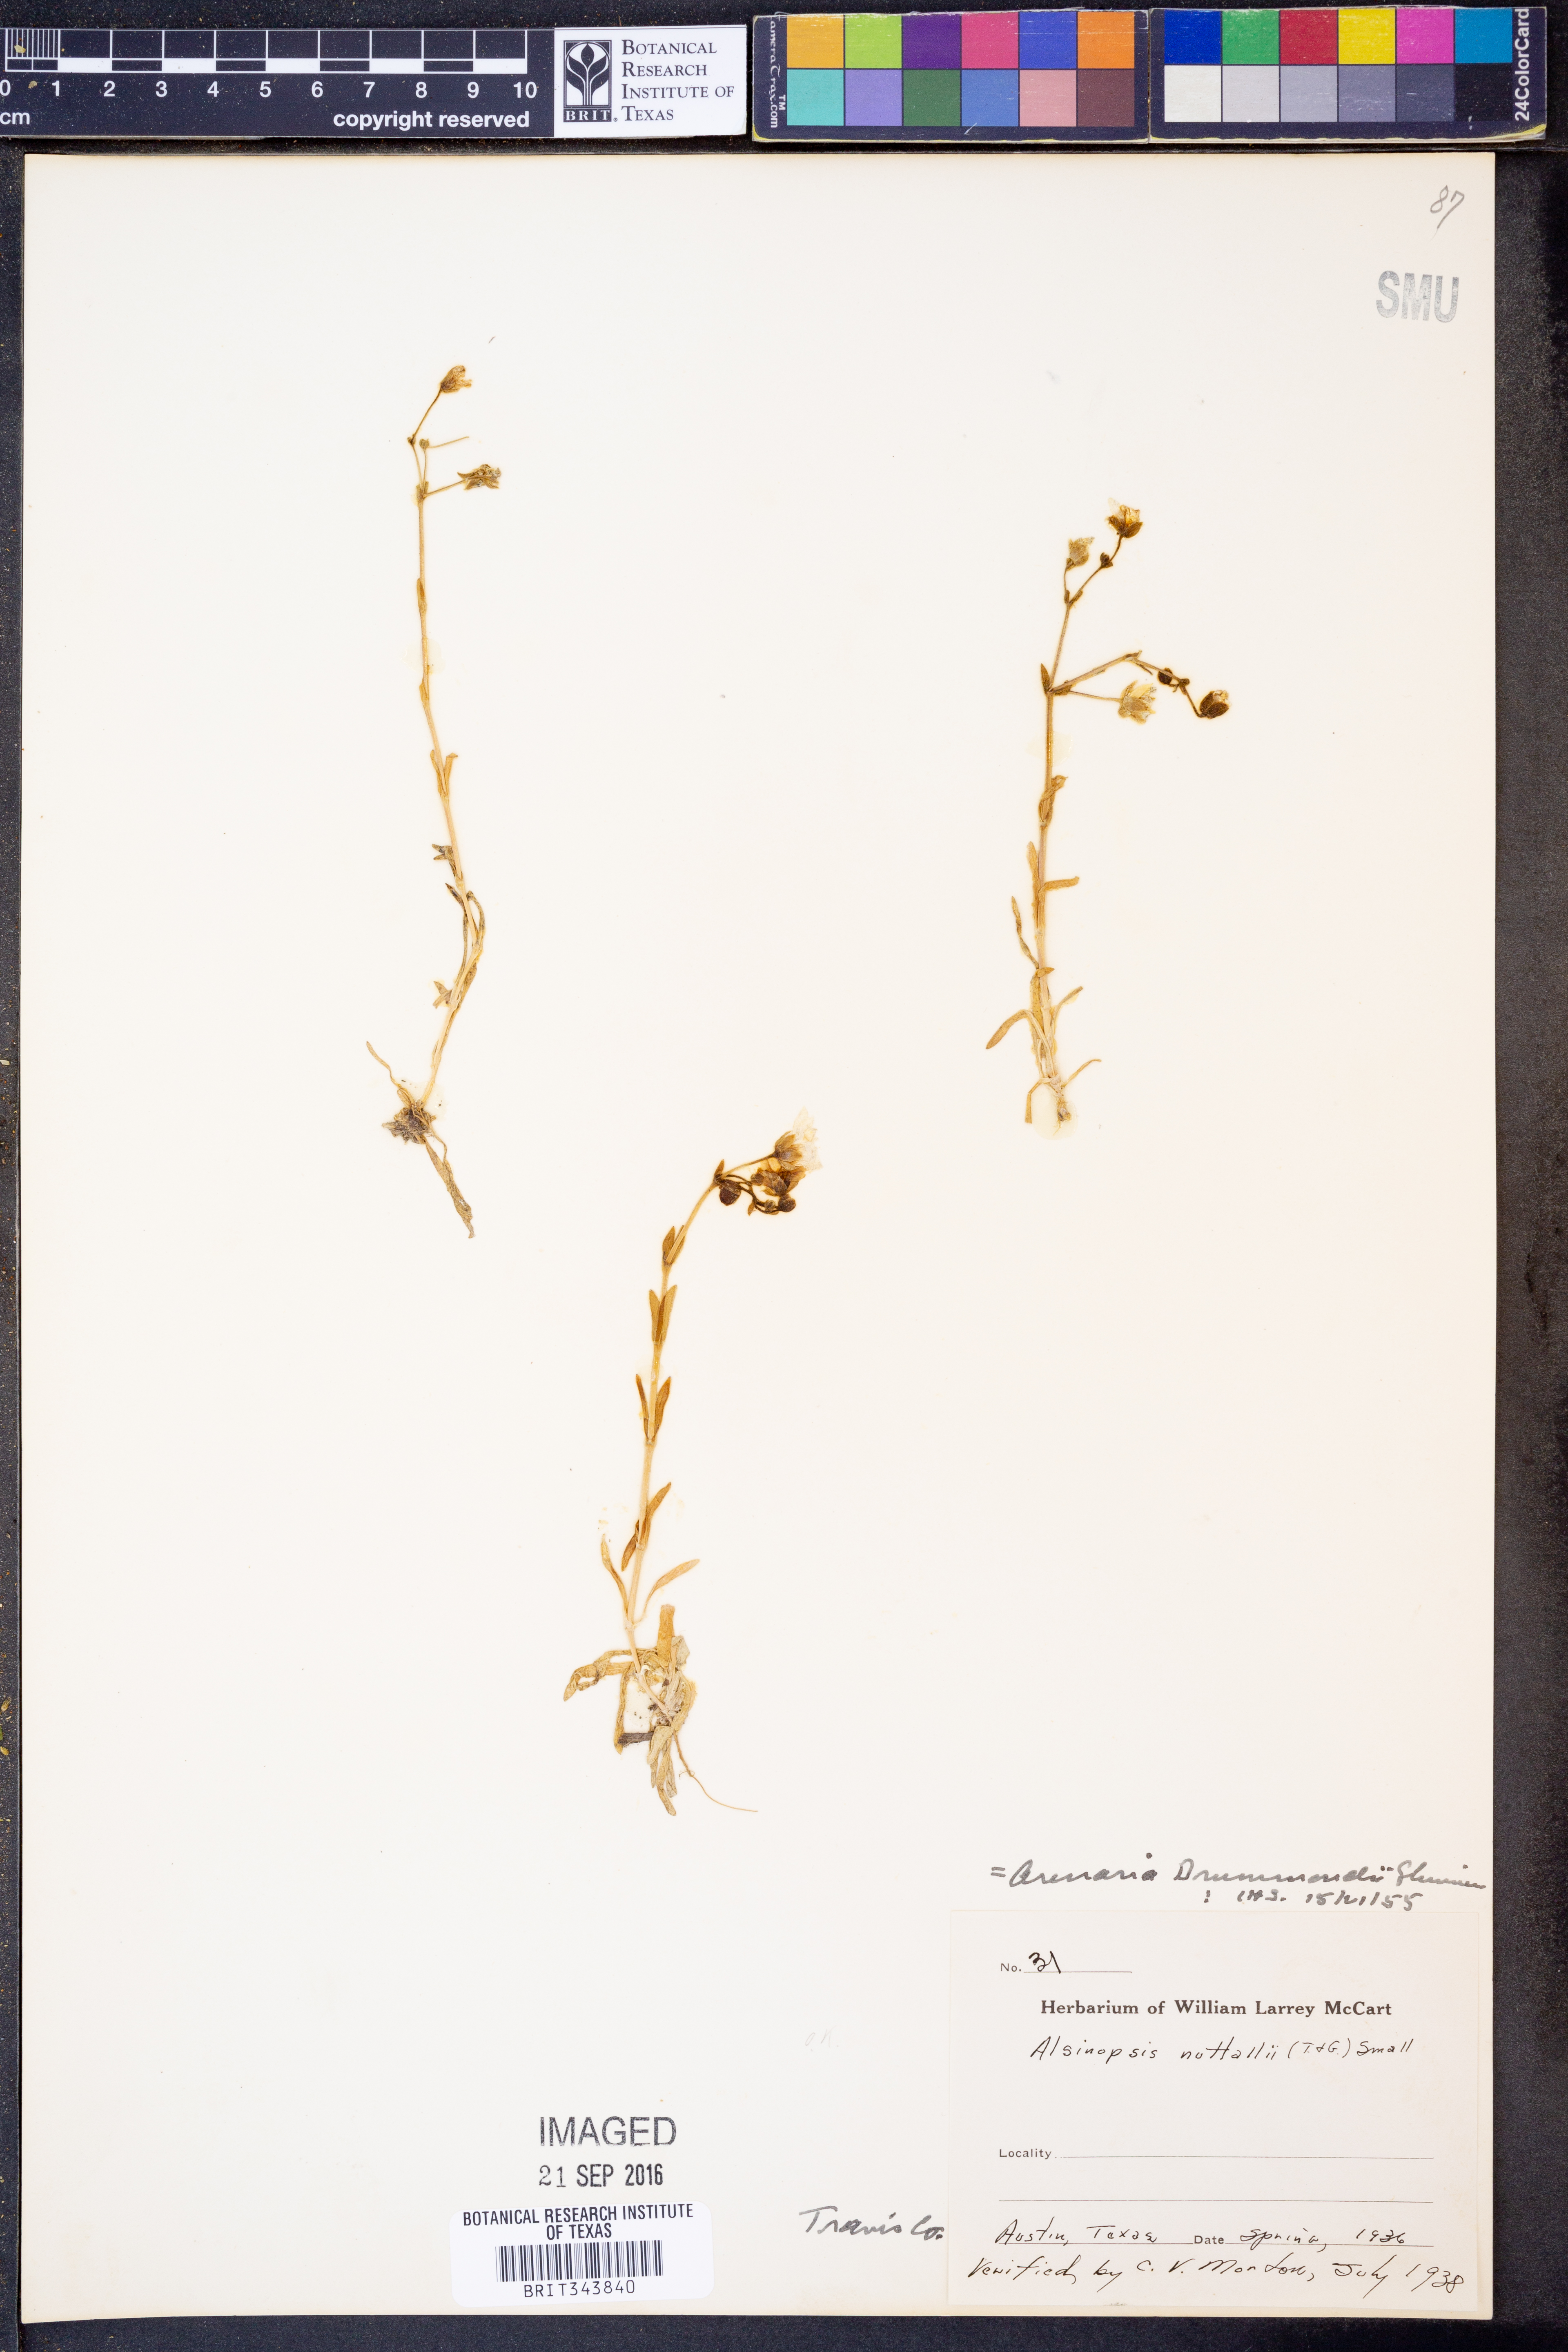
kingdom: Plantae
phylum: Tracheophyta
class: Magnoliopsida
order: Caryophyllales
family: Caryophyllaceae
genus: Geocarpon
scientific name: Geocarpon nuttallii
